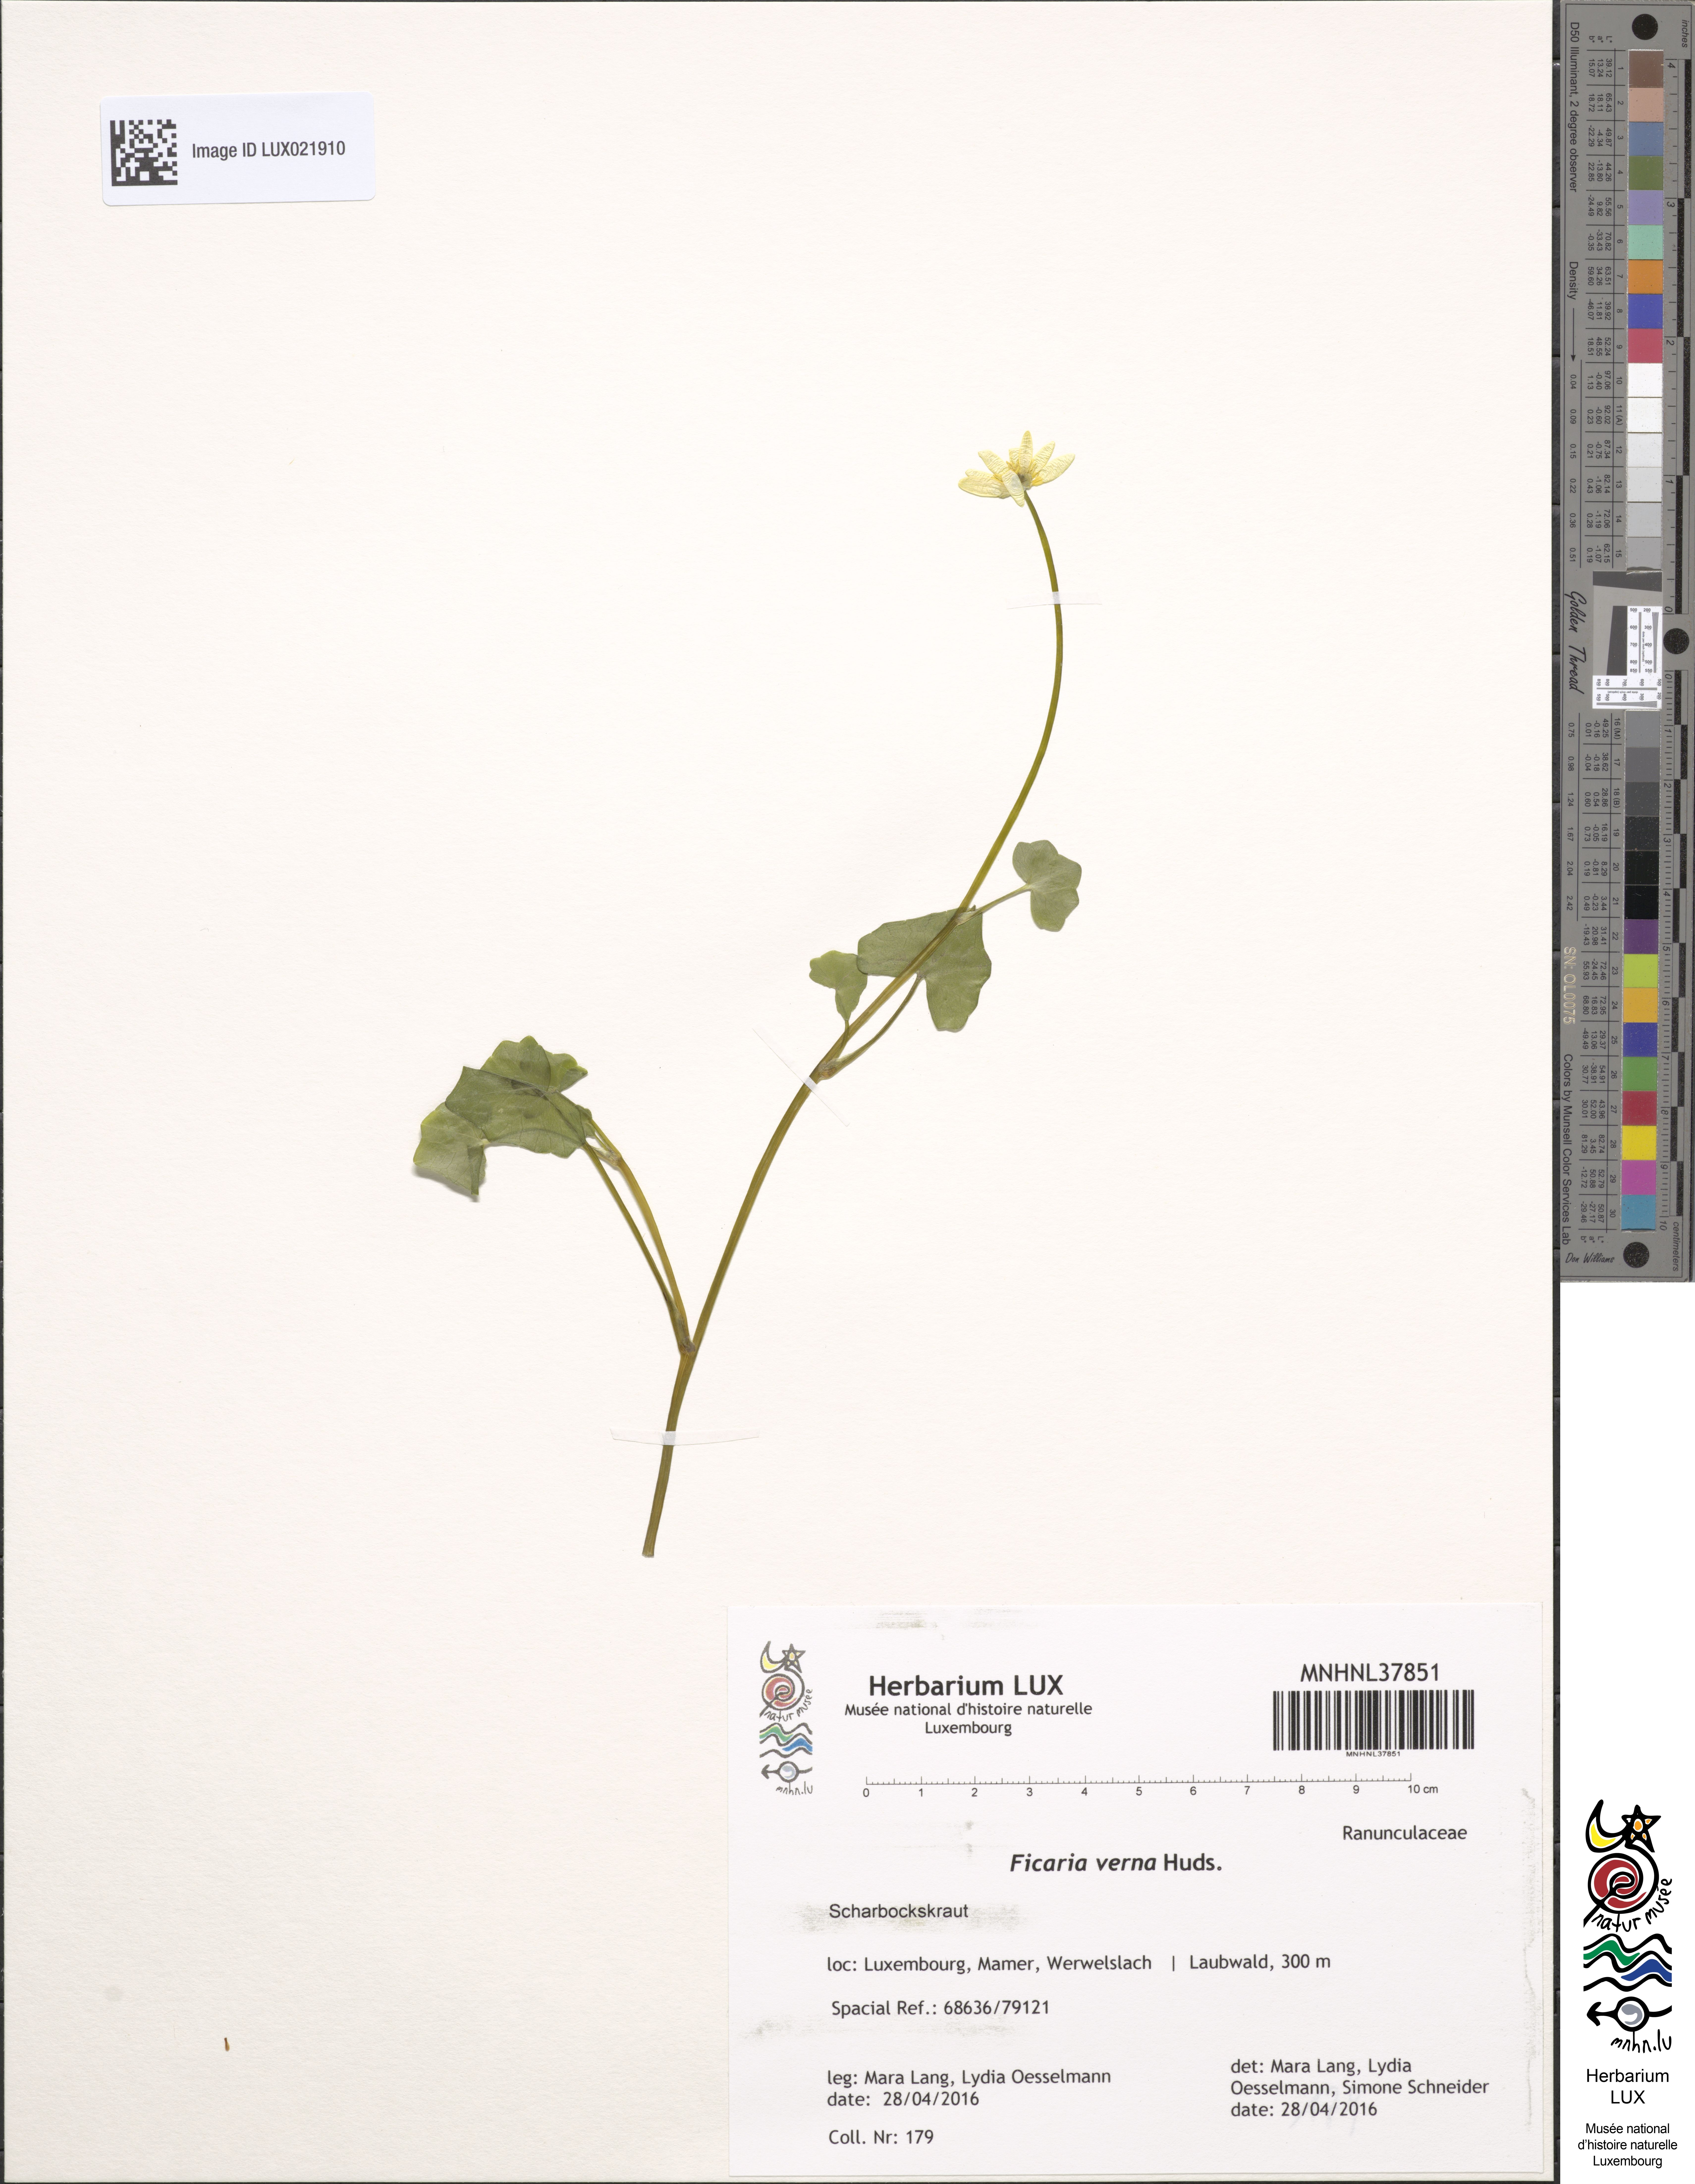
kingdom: Plantae
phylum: Tracheophyta
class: Magnoliopsida
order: Ranunculales
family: Ranunculaceae
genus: Ficaria
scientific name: Ficaria verna
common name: Lesser celandine
